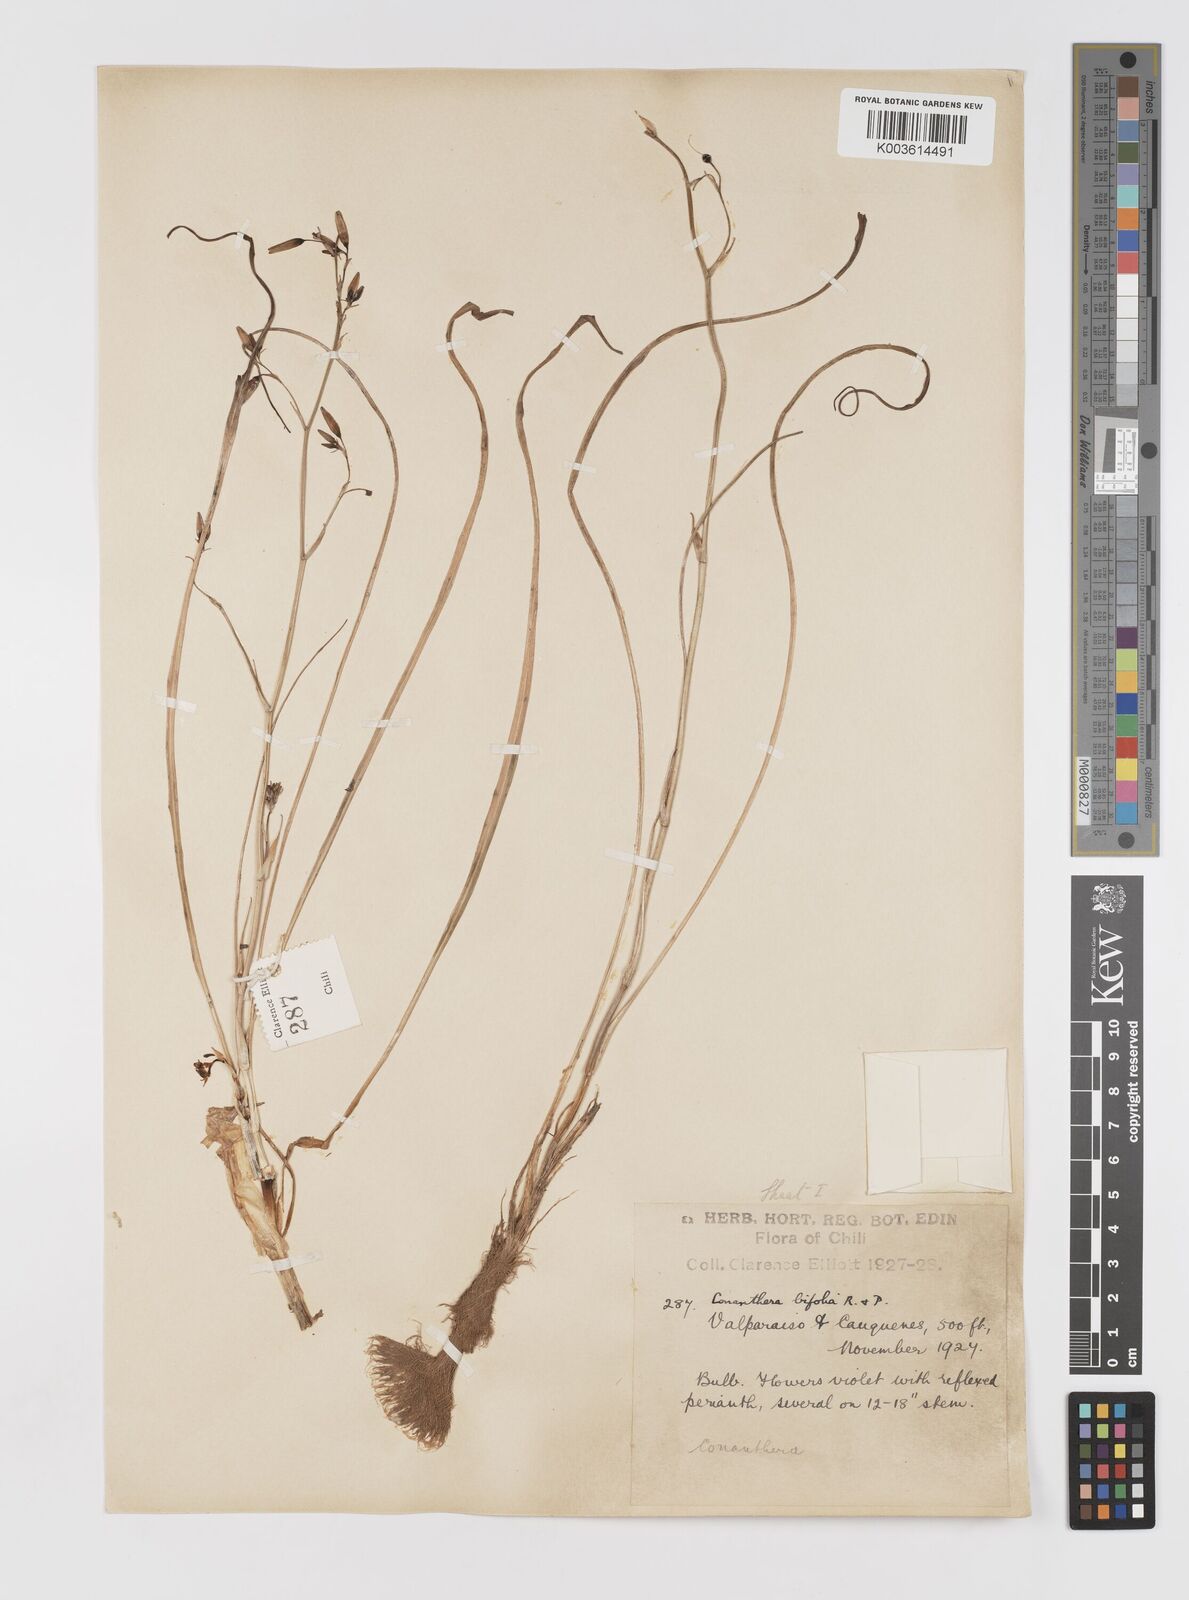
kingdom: Plantae
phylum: Tracheophyta
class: Liliopsida
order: Asparagales
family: Tecophilaeaceae
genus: Conanthera
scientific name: Conanthera bifolia
